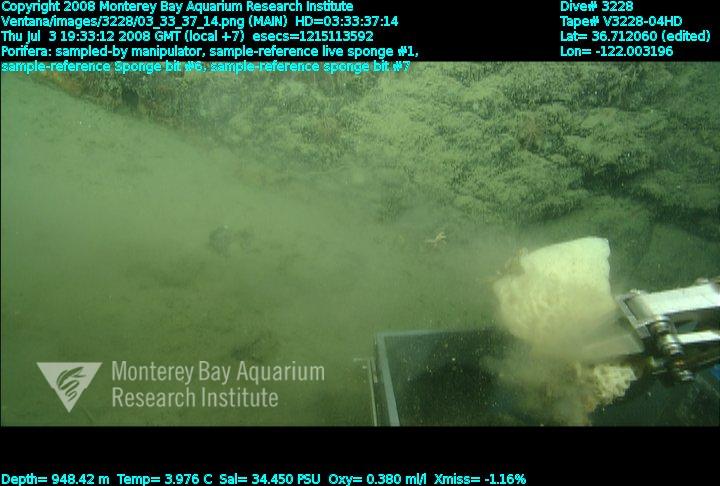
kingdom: Animalia
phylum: Porifera
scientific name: Porifera
